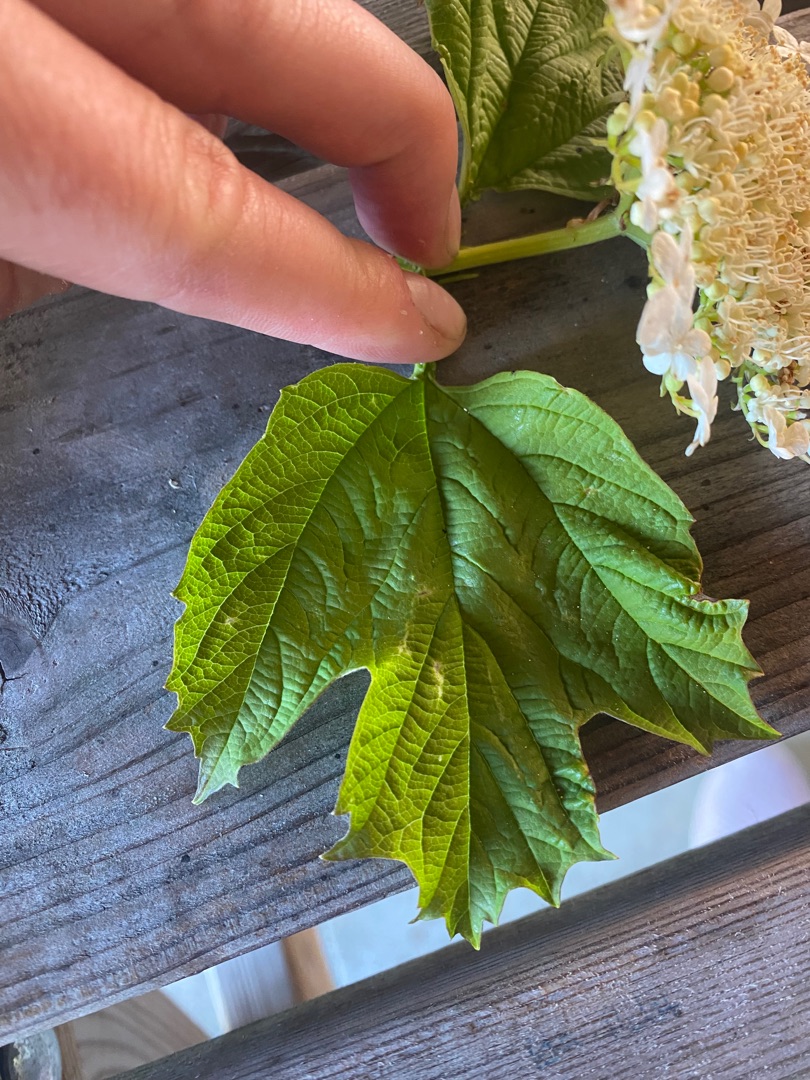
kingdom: Plantae
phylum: Tracheophyta
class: Magnoliopsida
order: Dipsacales
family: Viburnaceae
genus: Viburnum
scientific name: Viburnum opulus
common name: Kvalkved
